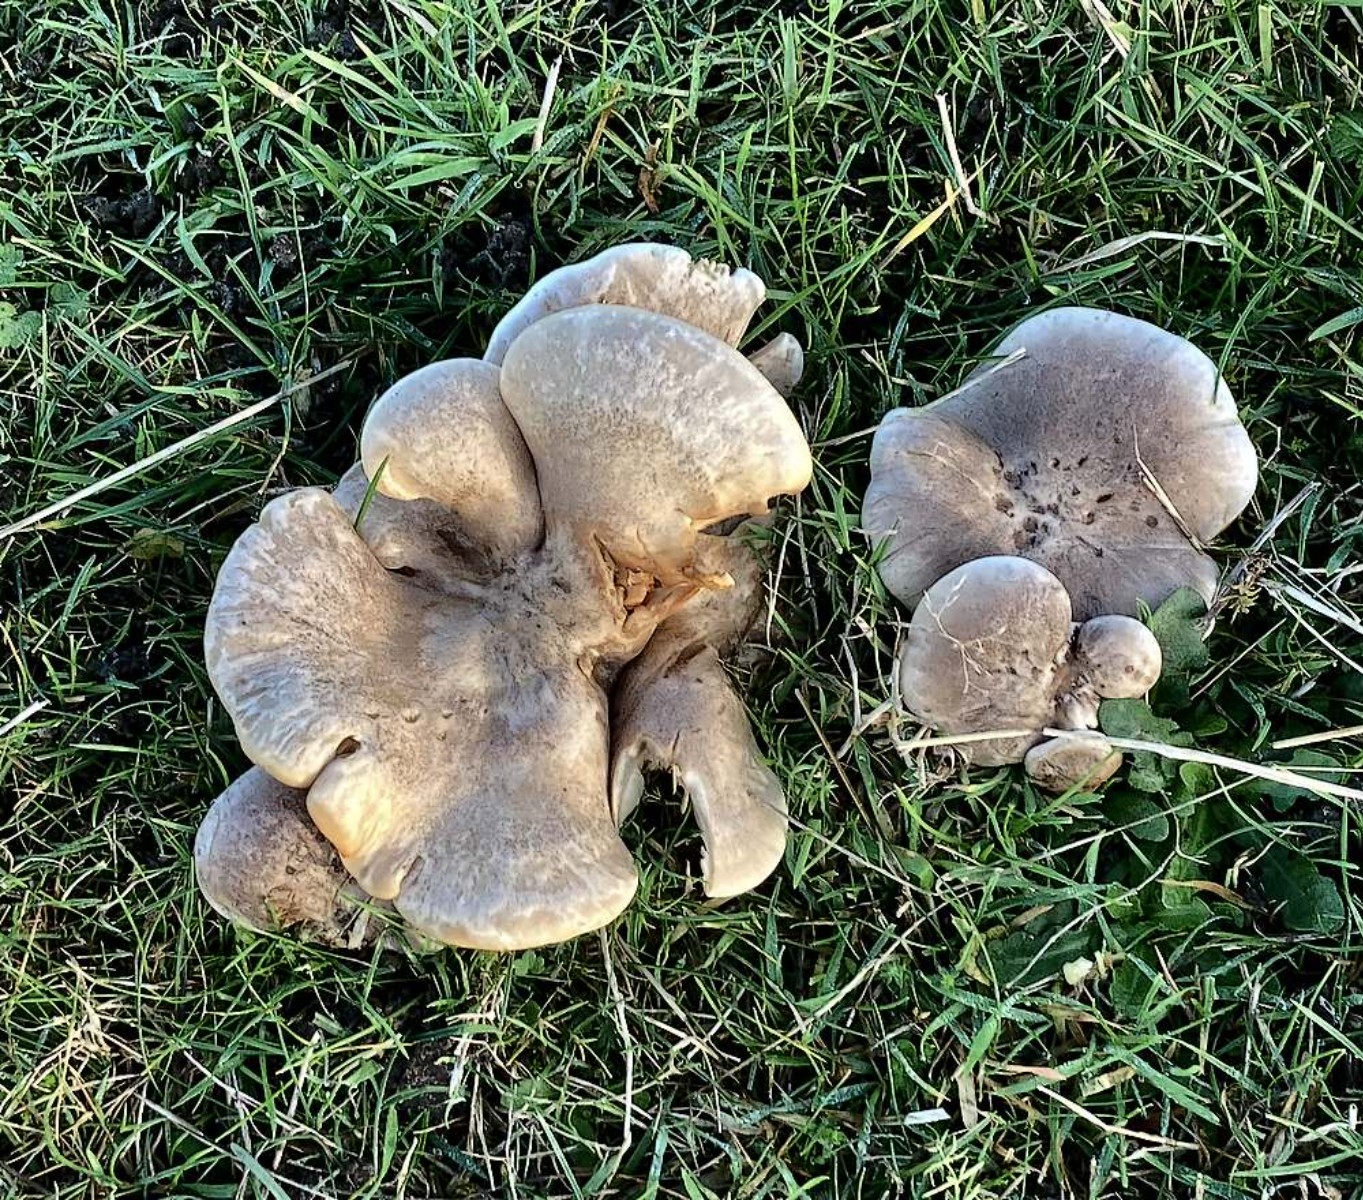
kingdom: Fungi
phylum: Basidiomycota
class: Agaricomycetes
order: Agaricales
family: Tricholomataceae
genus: Lepista
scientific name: Lepista panaeolus
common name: marmoreret hekseringshat
